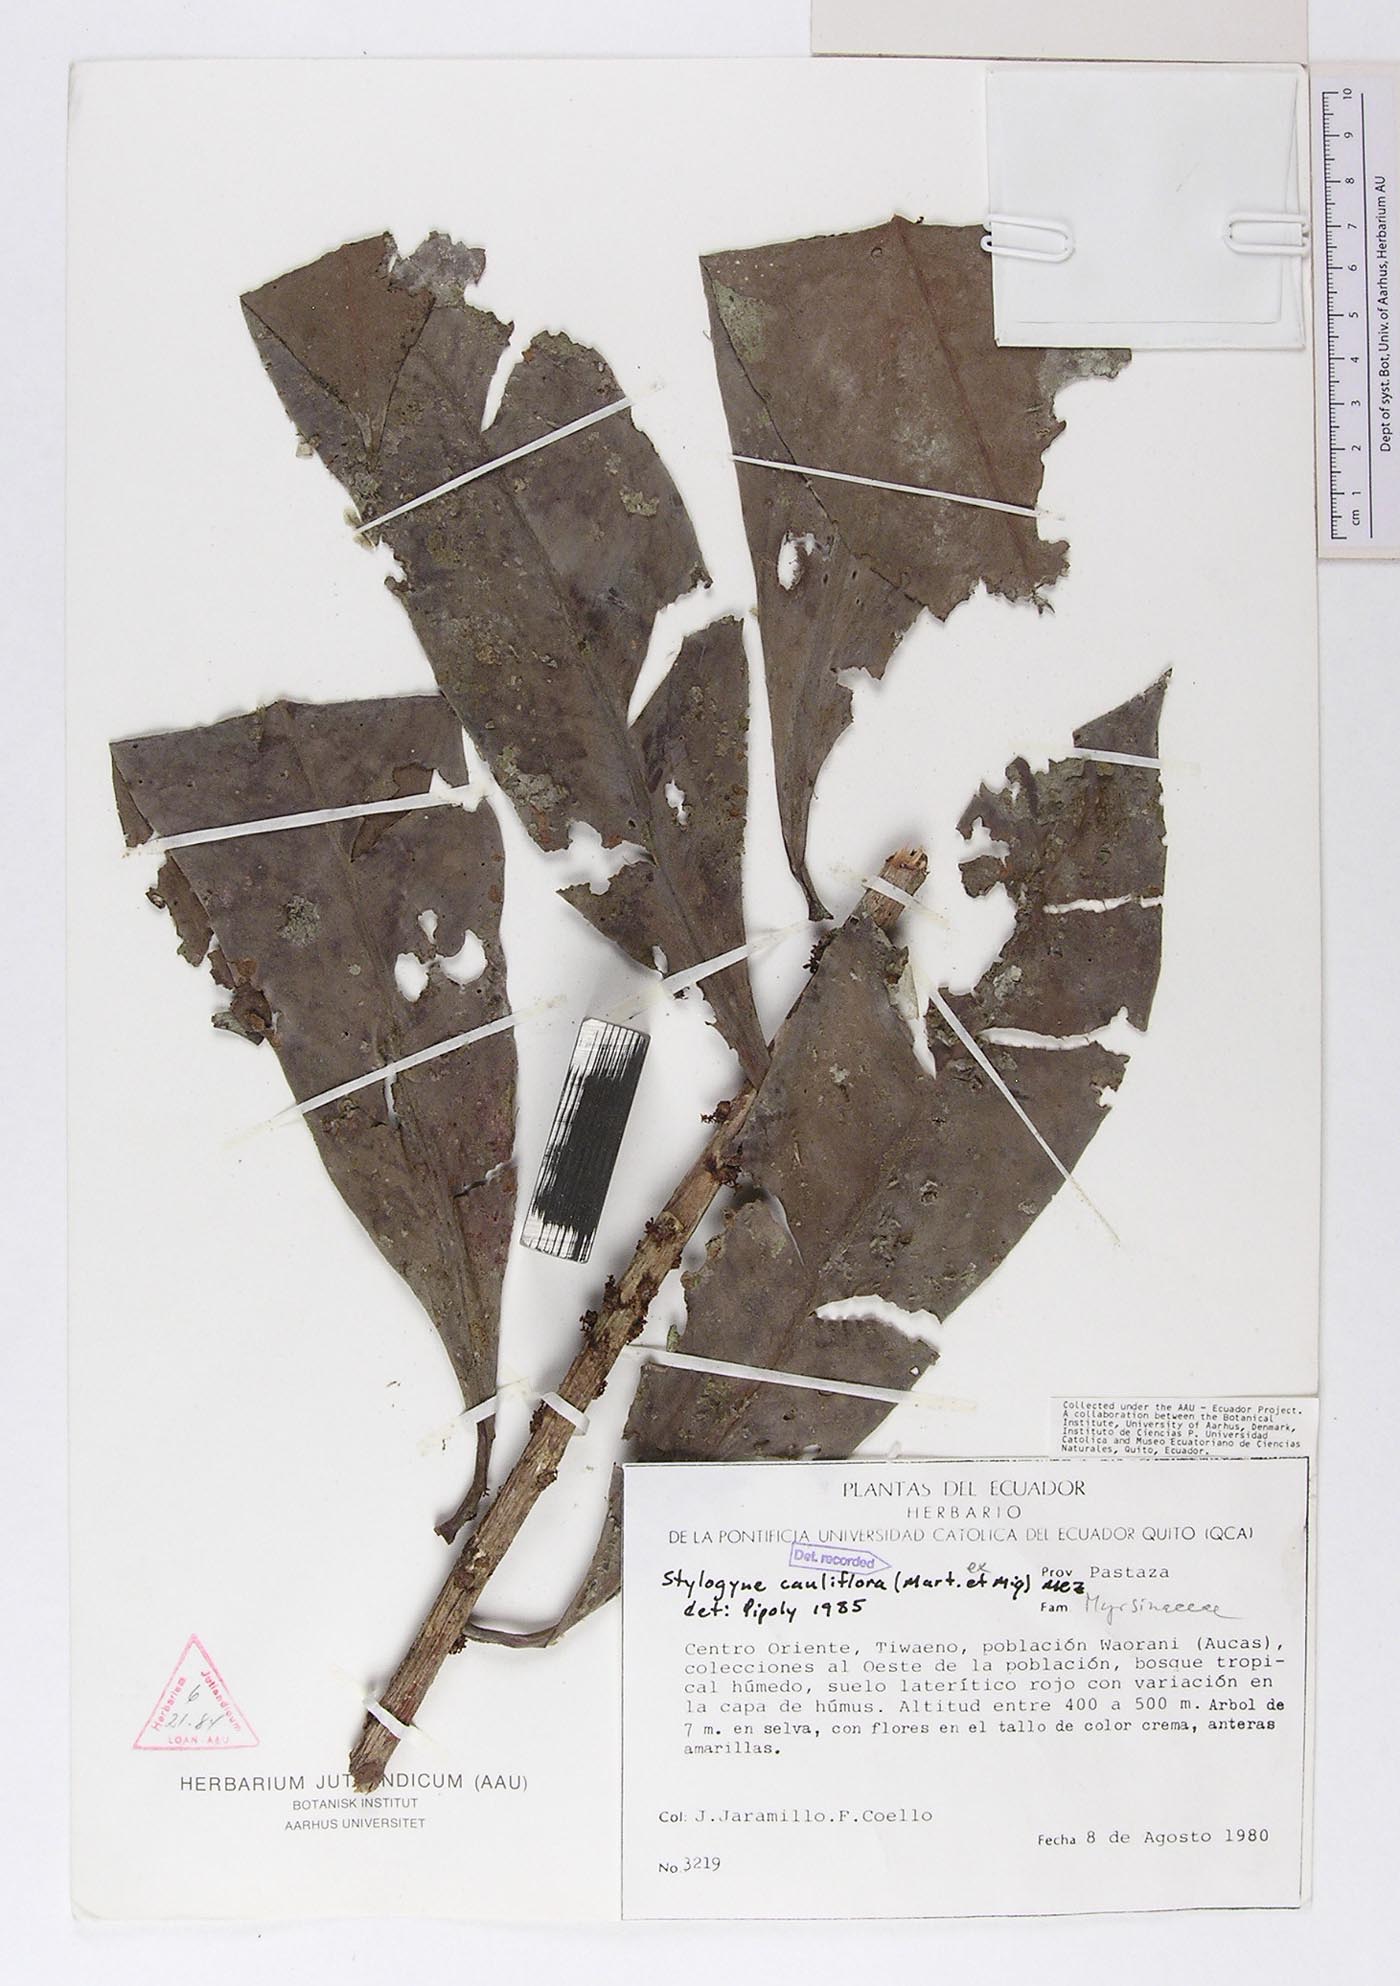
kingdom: Plantae
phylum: Tracheophyta
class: Magnoliopsida
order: Ericales
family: Primulaceae
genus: Stylogyne
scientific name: Stylogyne cauliflora
